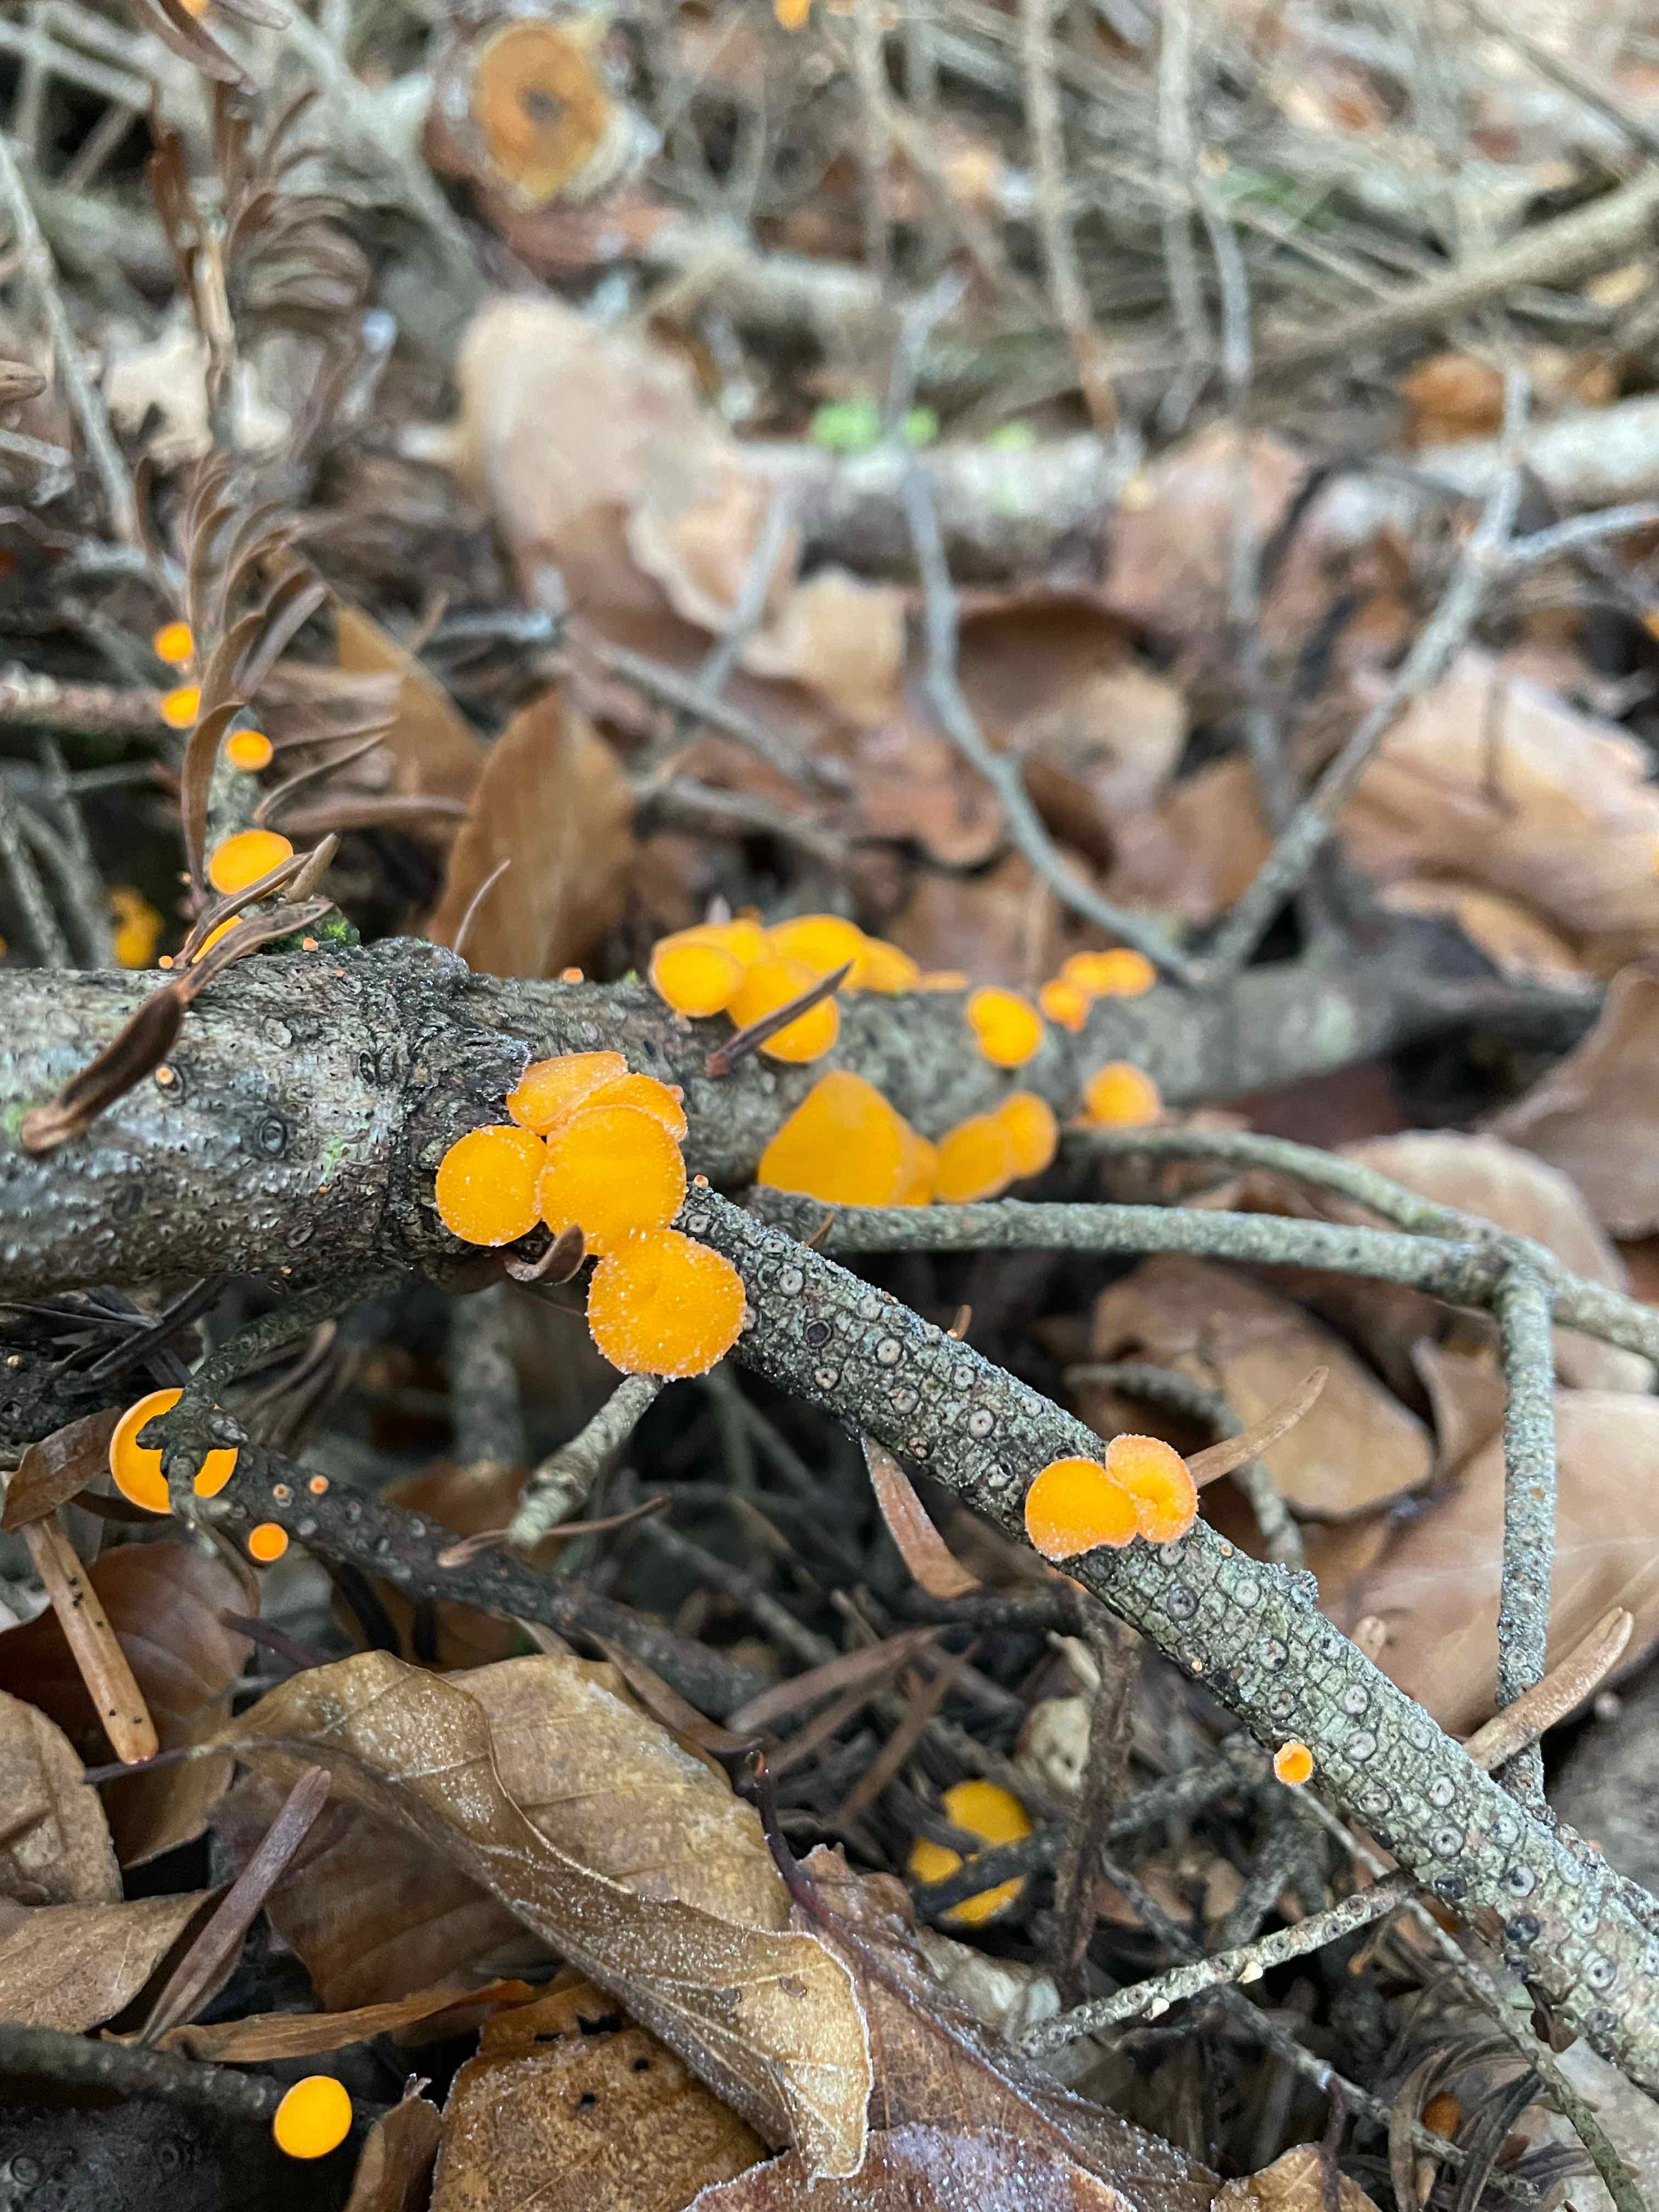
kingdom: Fungi
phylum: Ascomycota
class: Pezizomycetes
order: Pezizales
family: Sarcoscyphaceae
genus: Pithya
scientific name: Pithya vulgaris
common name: stor dukatbæger
